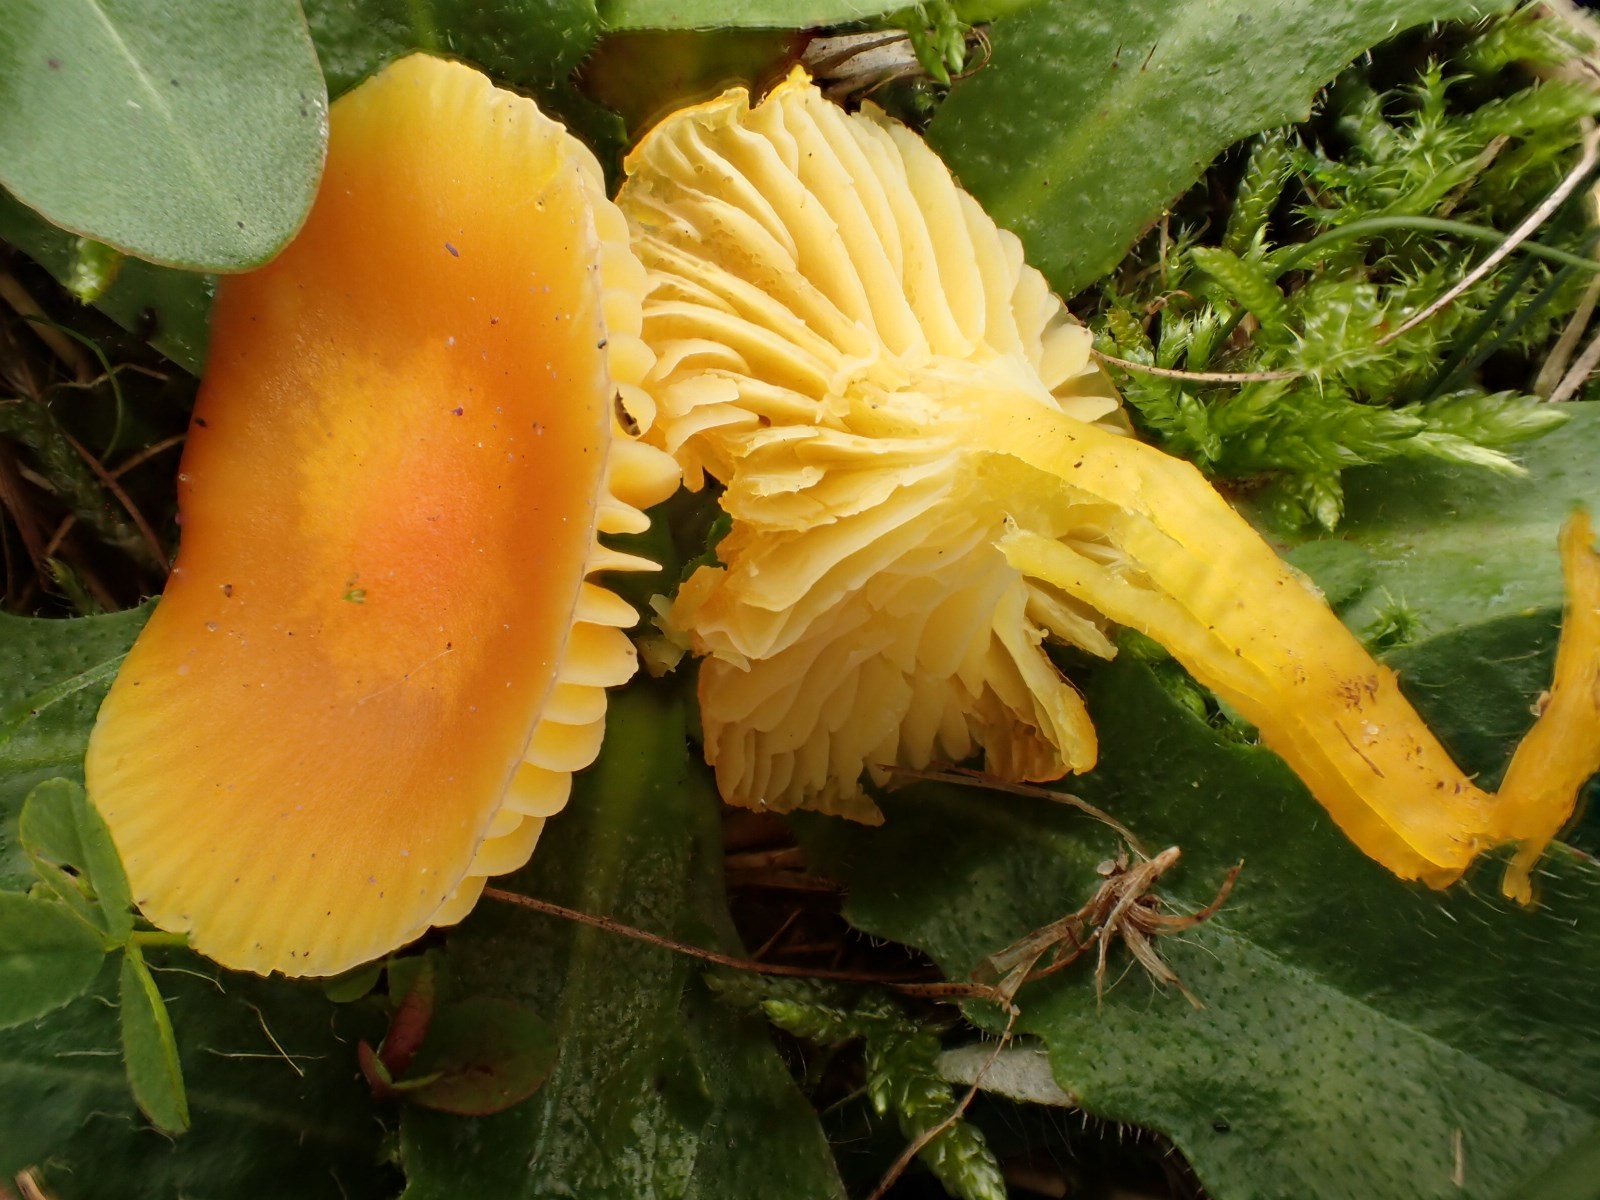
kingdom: Fungi
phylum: Basidiomycota
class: Agaricomycetes
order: Agaricales
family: Hygrophoraceae
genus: Hygrocybe
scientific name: Hygrocybe chlorophana
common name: gul vokshat
